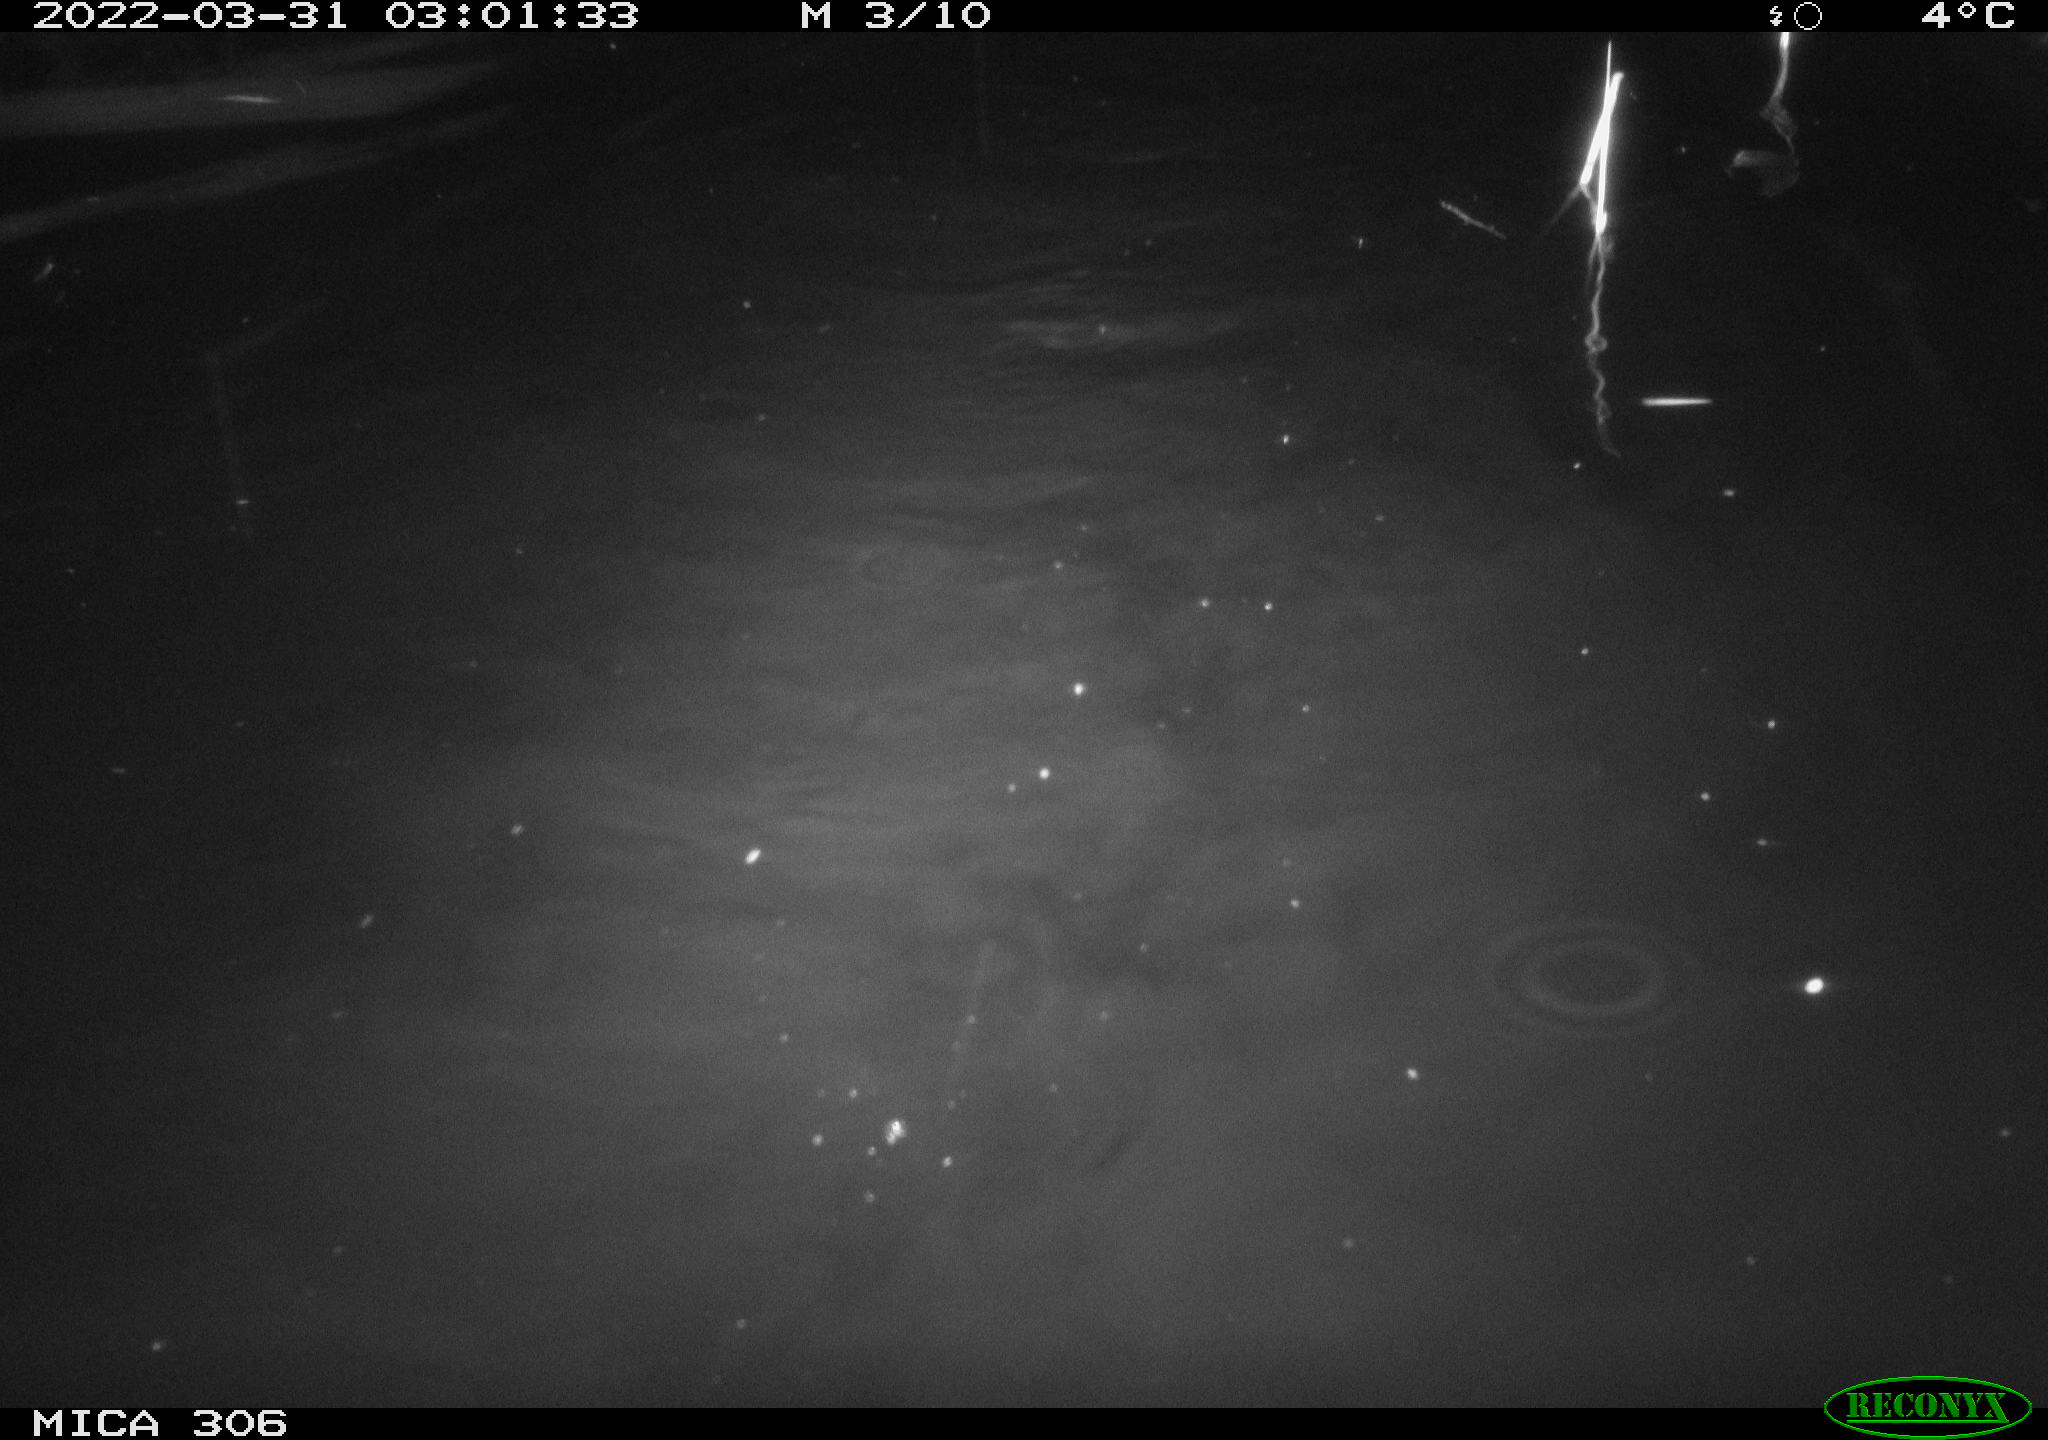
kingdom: Animalia
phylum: Chordata
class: Mammalia
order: Rodentia
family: Cricetidae
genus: Ondatra
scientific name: Ondatra zibethicus
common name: Muskrat
